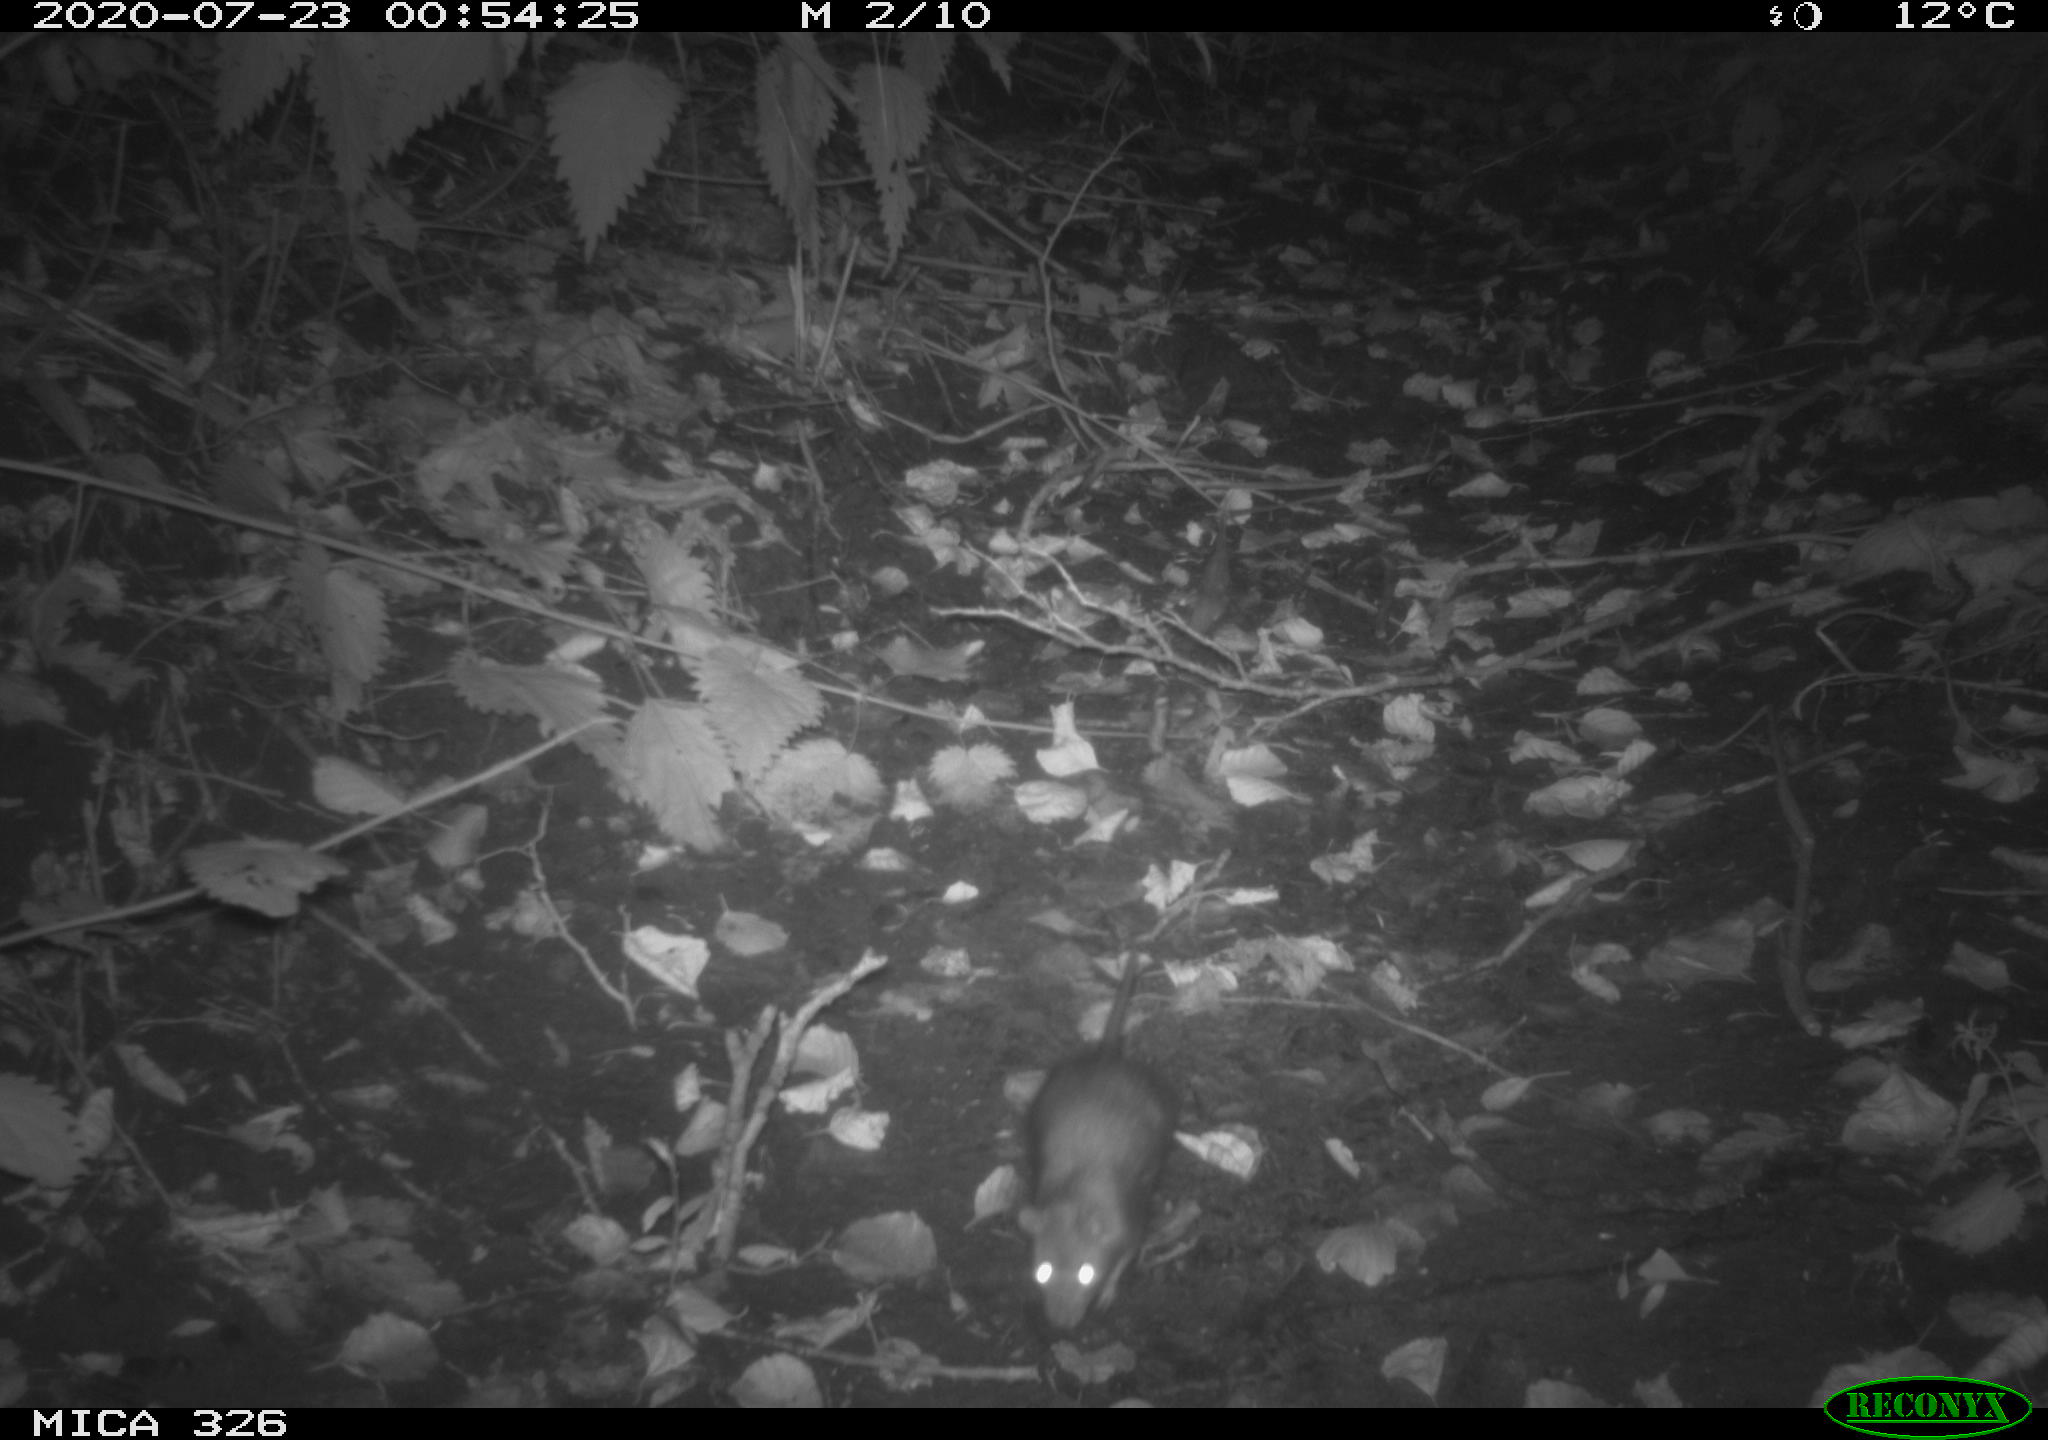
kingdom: Animalia
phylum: Chordata
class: Mammalia
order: Rodentia
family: Muridae
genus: Rattus
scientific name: Rattus norvegicus
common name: Brown rat
